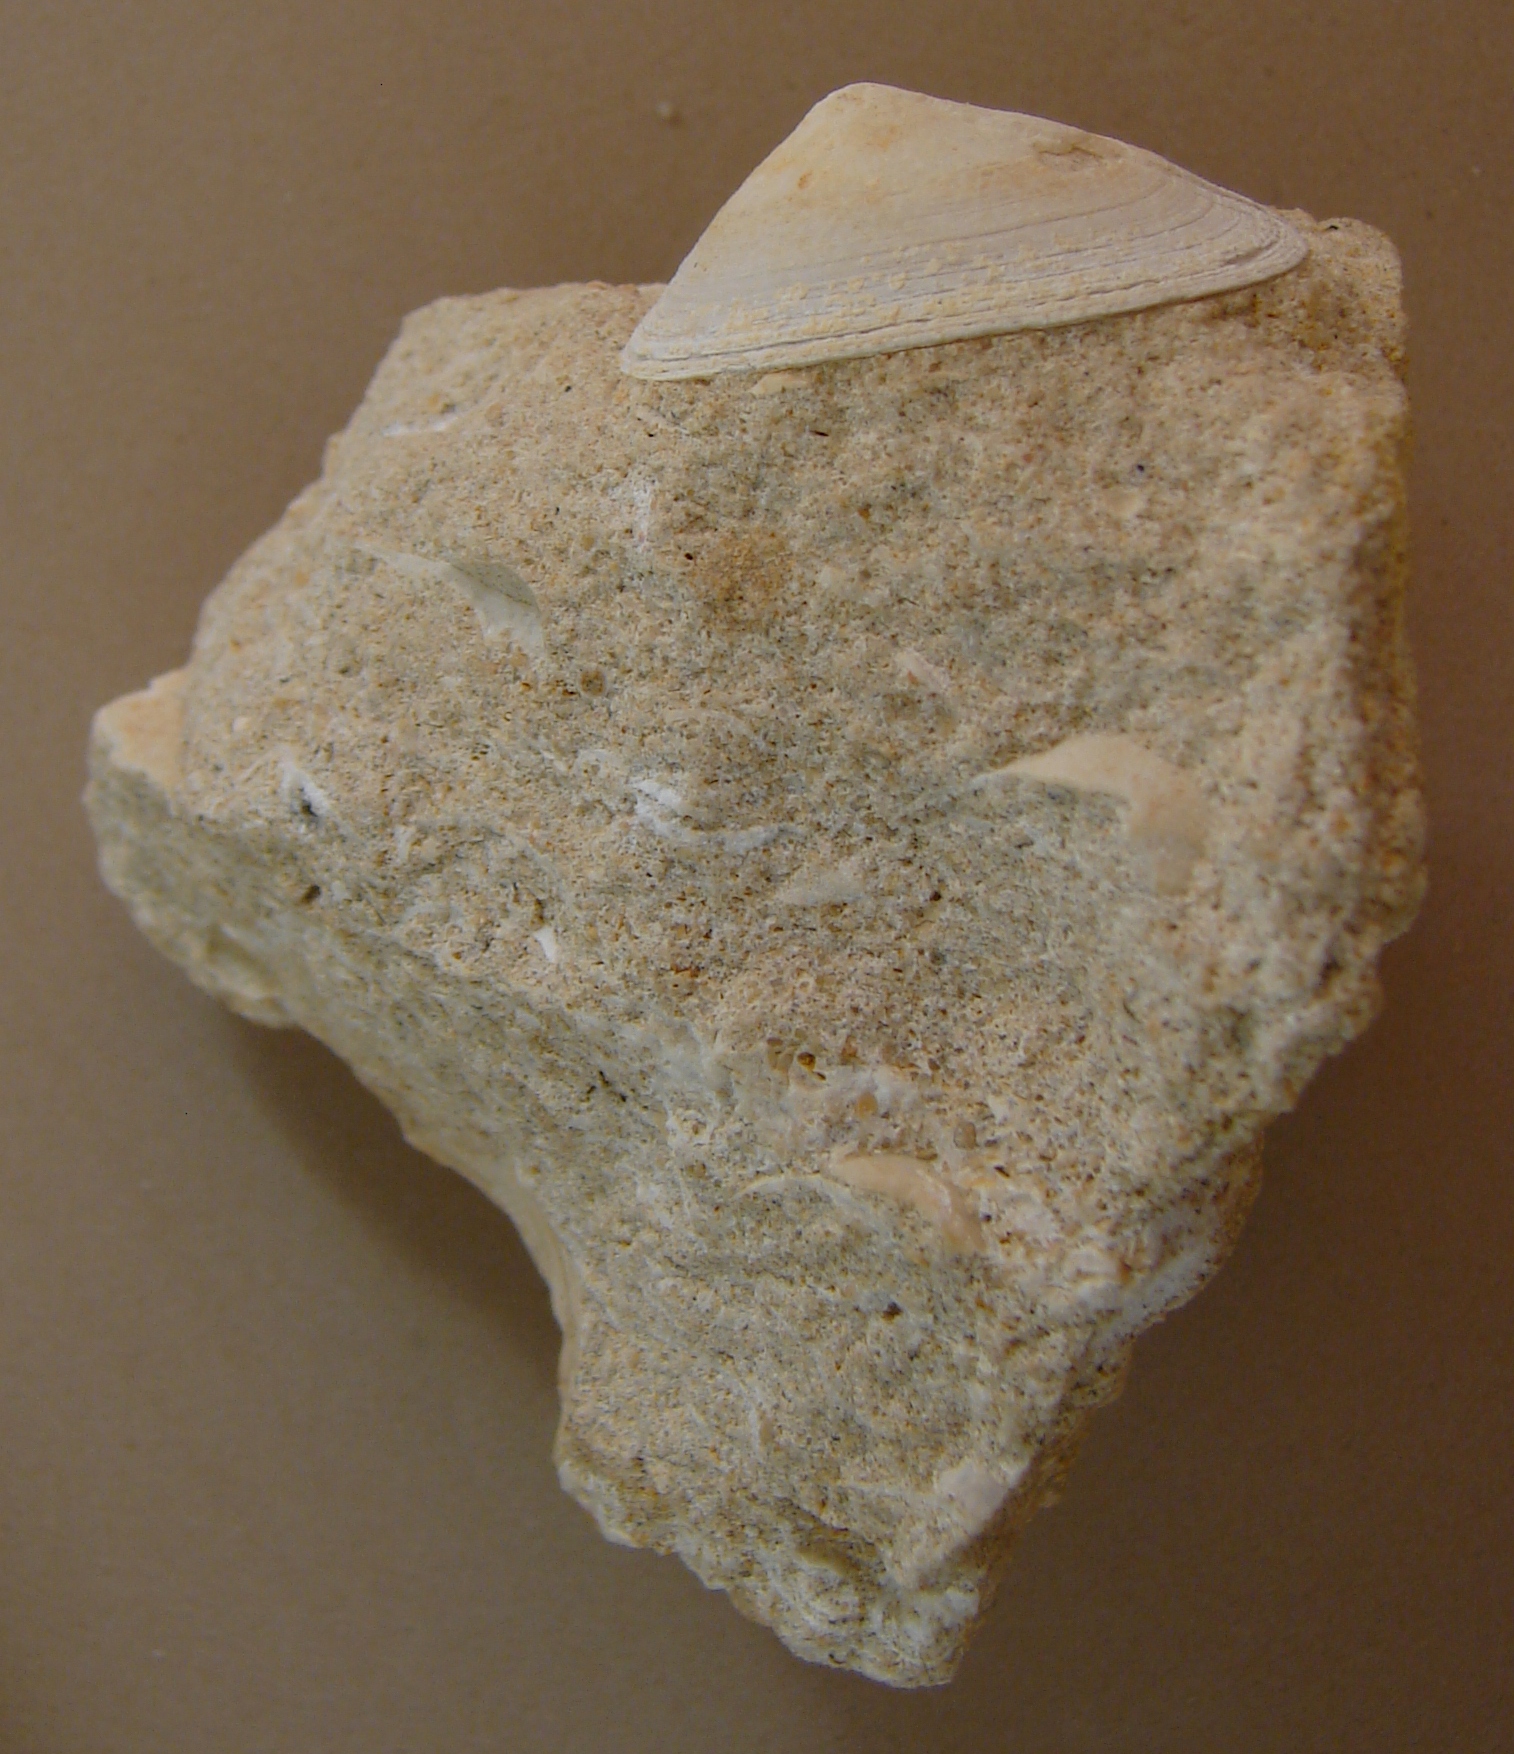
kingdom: Animalia
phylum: Mollusca
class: Gastropoda
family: Acmaeadae
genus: Scurriopsis
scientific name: Scurriopsis Patella hettangiensis
